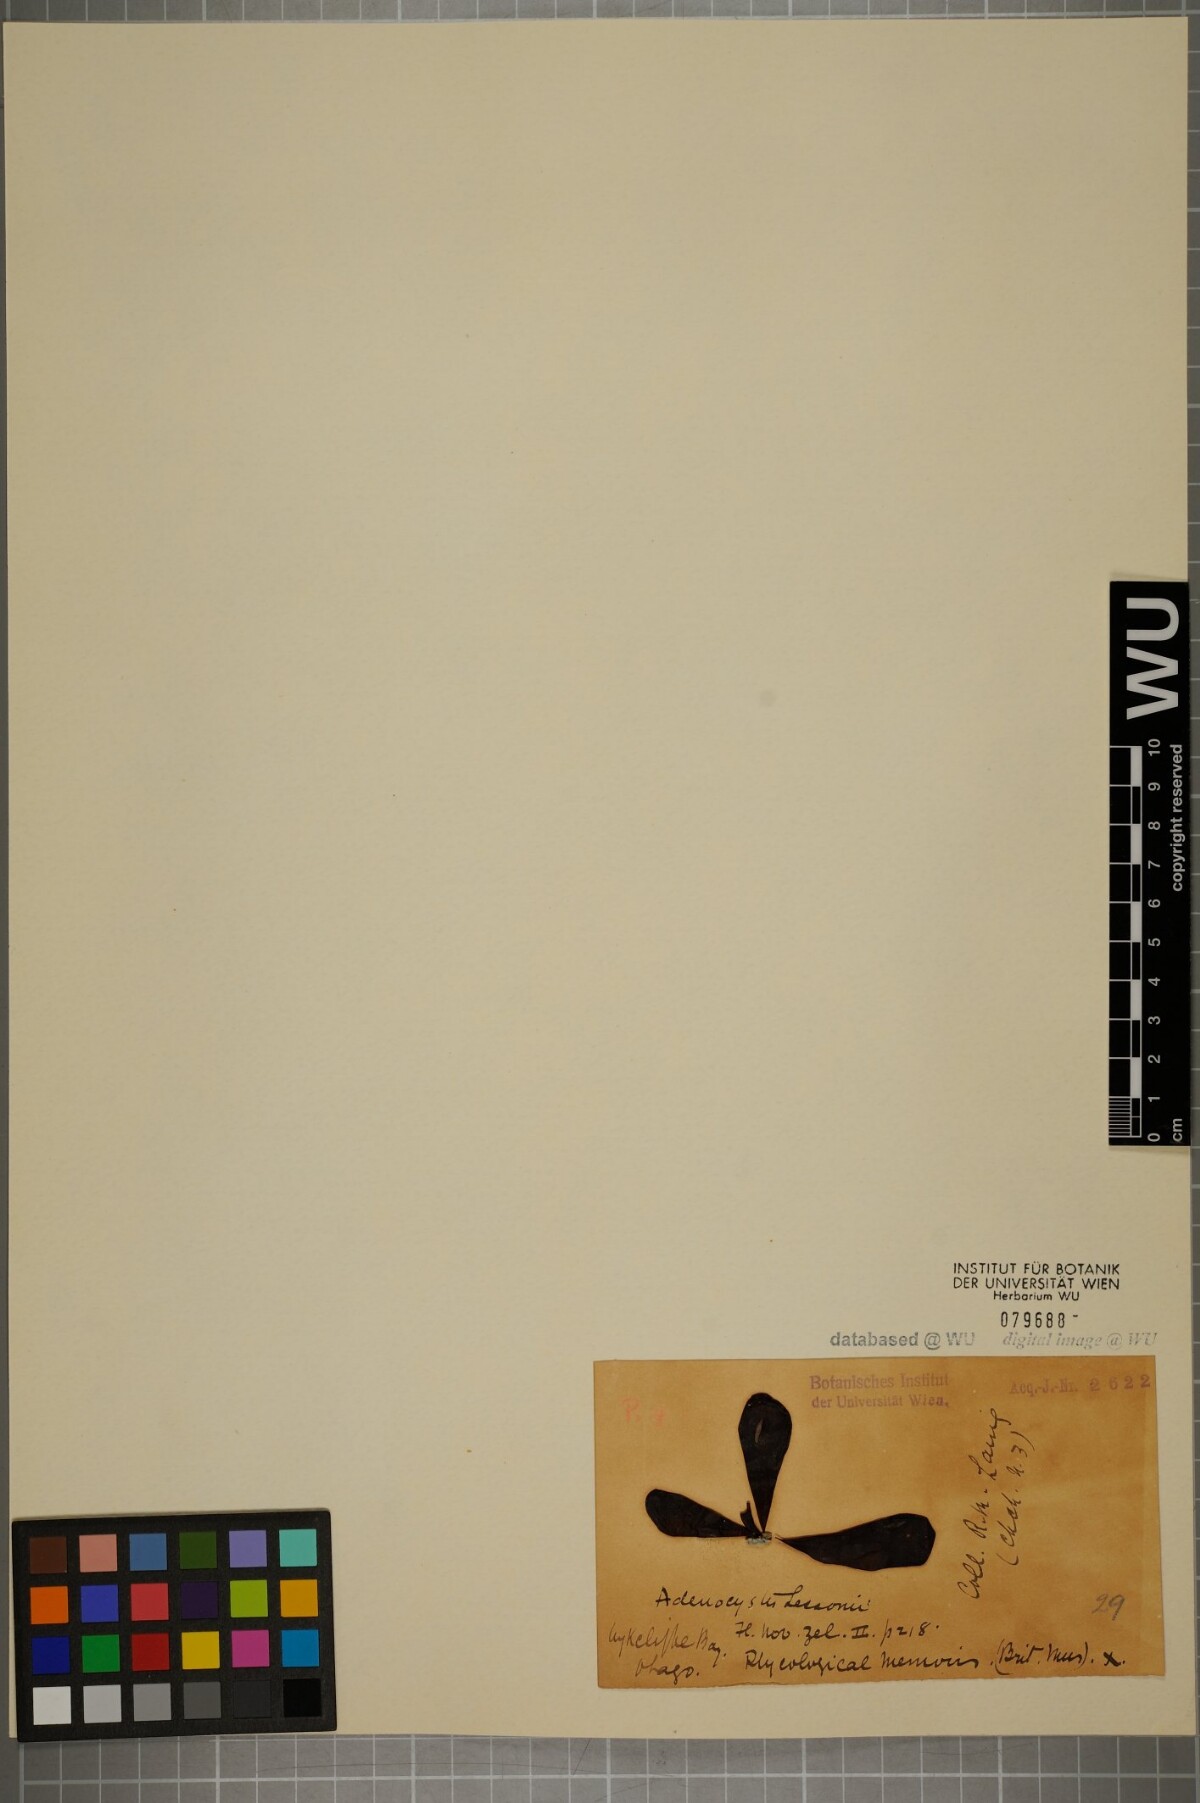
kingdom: Chromista
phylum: Ochrophyta
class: Phaeophyceae
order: Ectocarpales
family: Adenocystaceae
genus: Adenocystis
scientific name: Adenocystis utricularis
